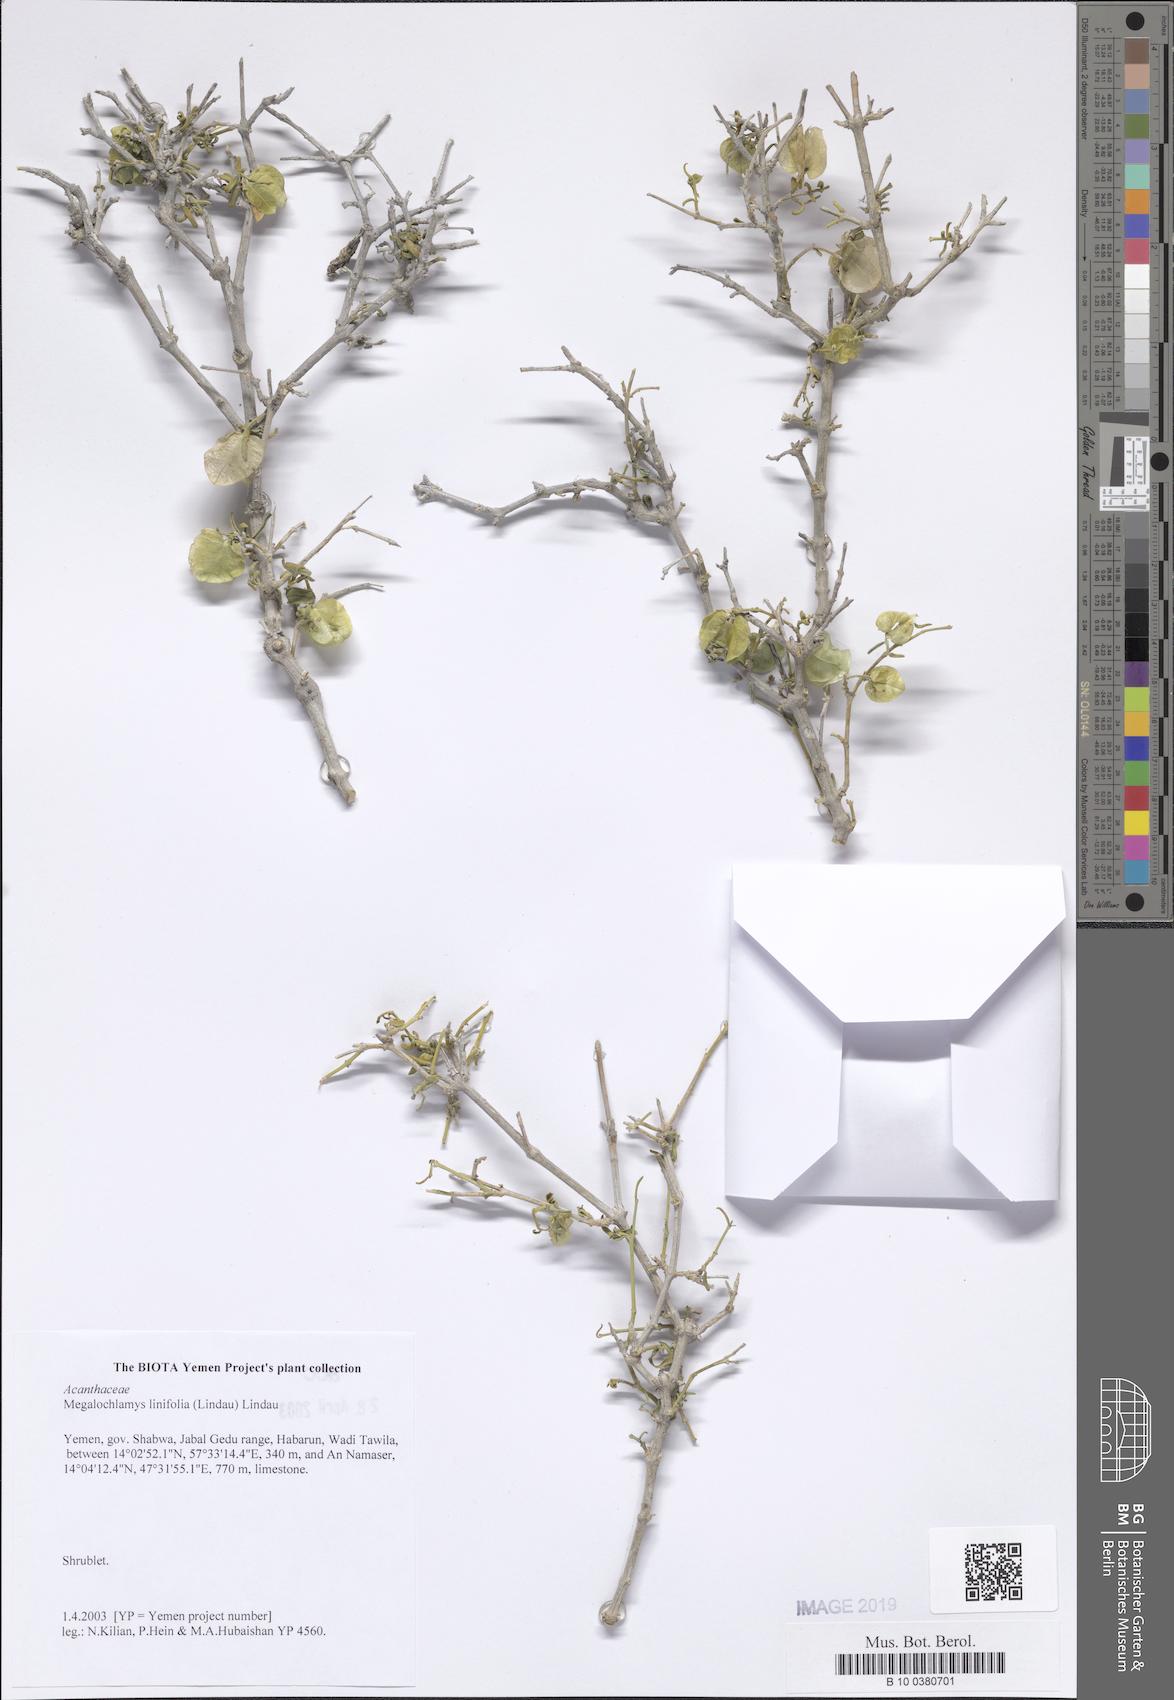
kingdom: Plantae
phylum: Tracheophyta
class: Magnoliopsida
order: Lamiales
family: Acanthaceae
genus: Megalochlamys
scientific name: Megalochlamys linifolia
